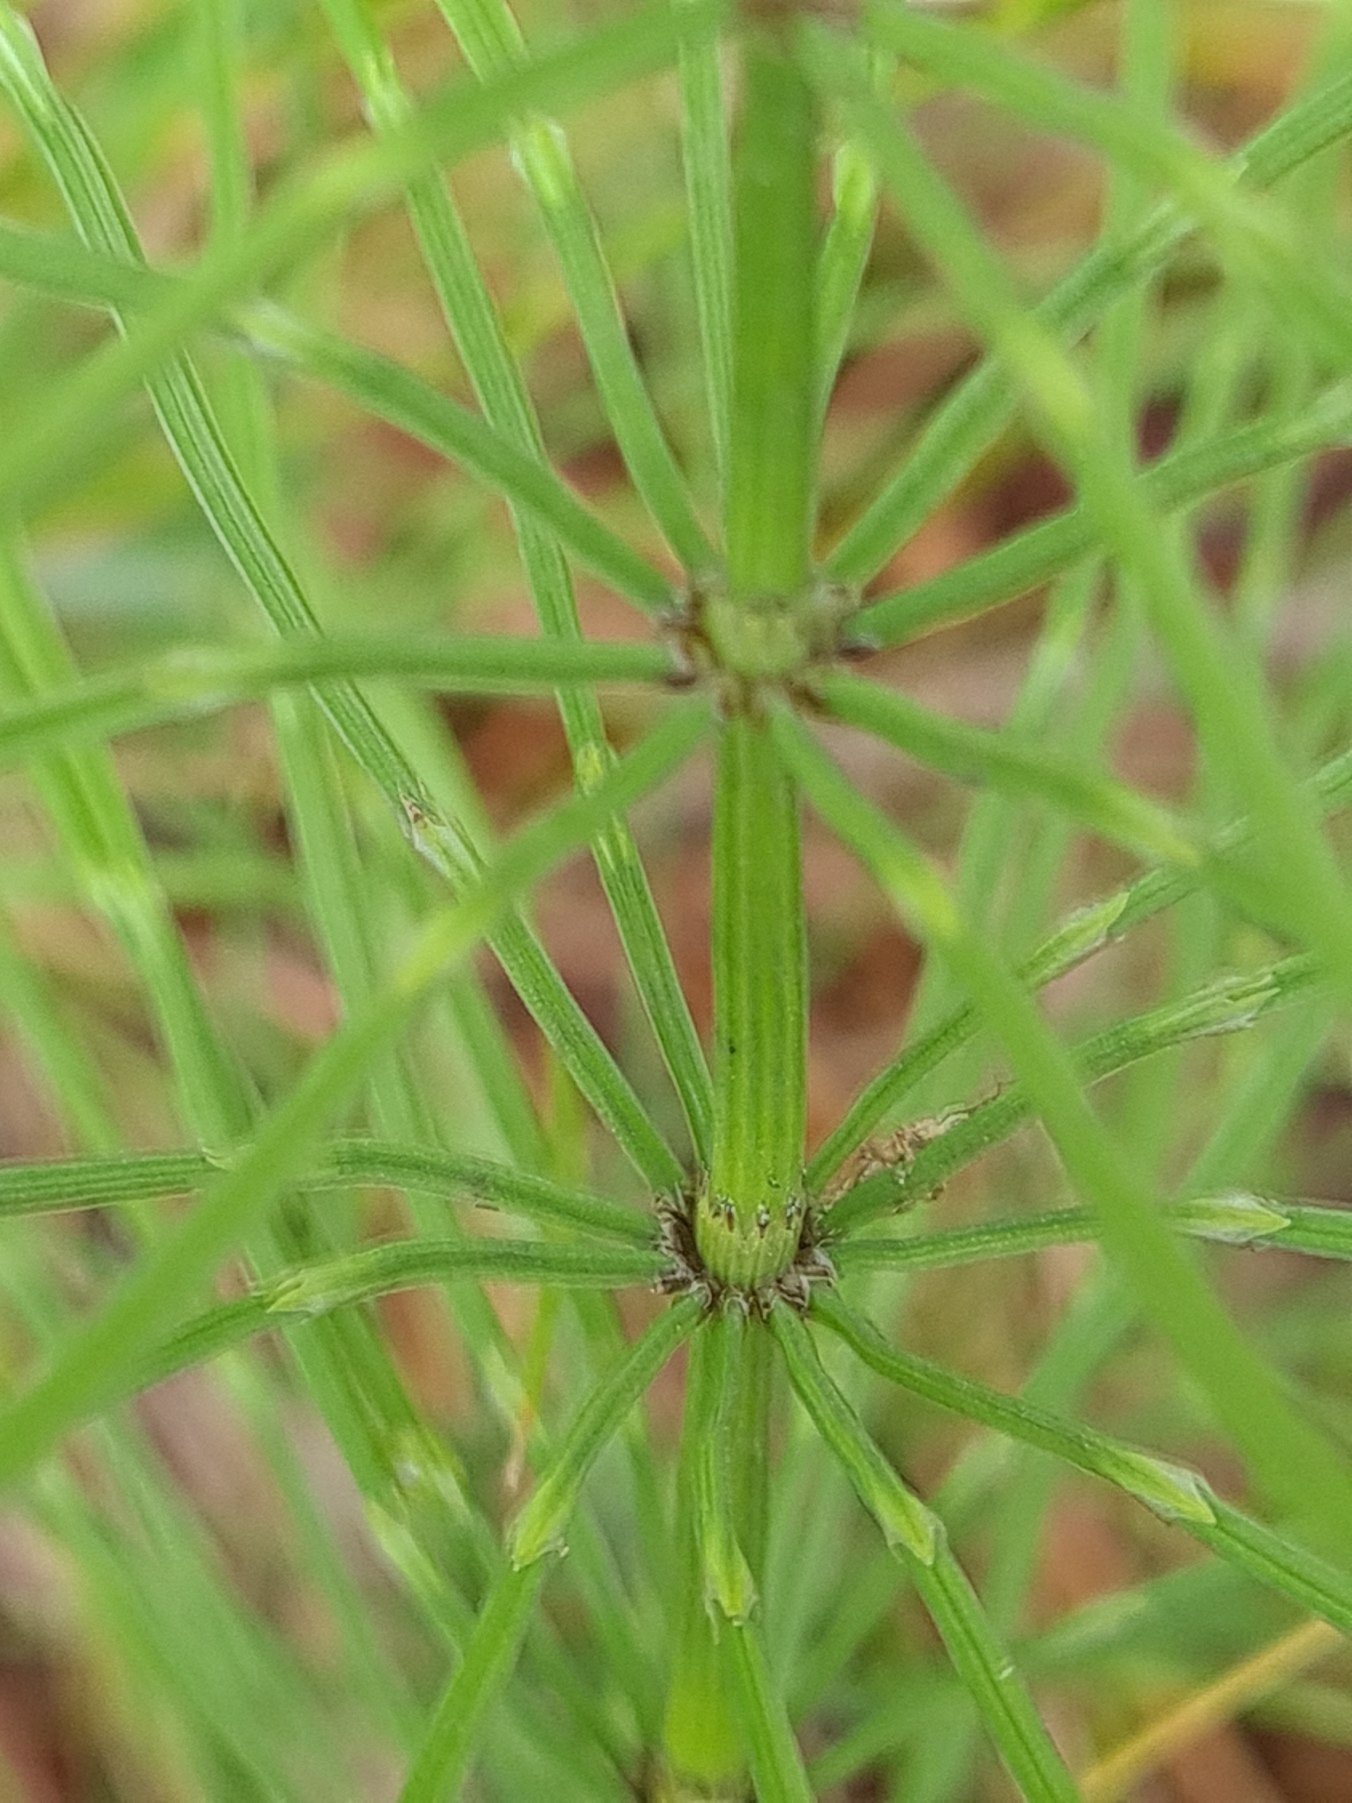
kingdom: Plantae
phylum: Tracheophyta
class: Polypodiopsida
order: Equisetales
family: Equisetaceae
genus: Equisetum
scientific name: Equisetum arvense
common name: Ager-padderok
